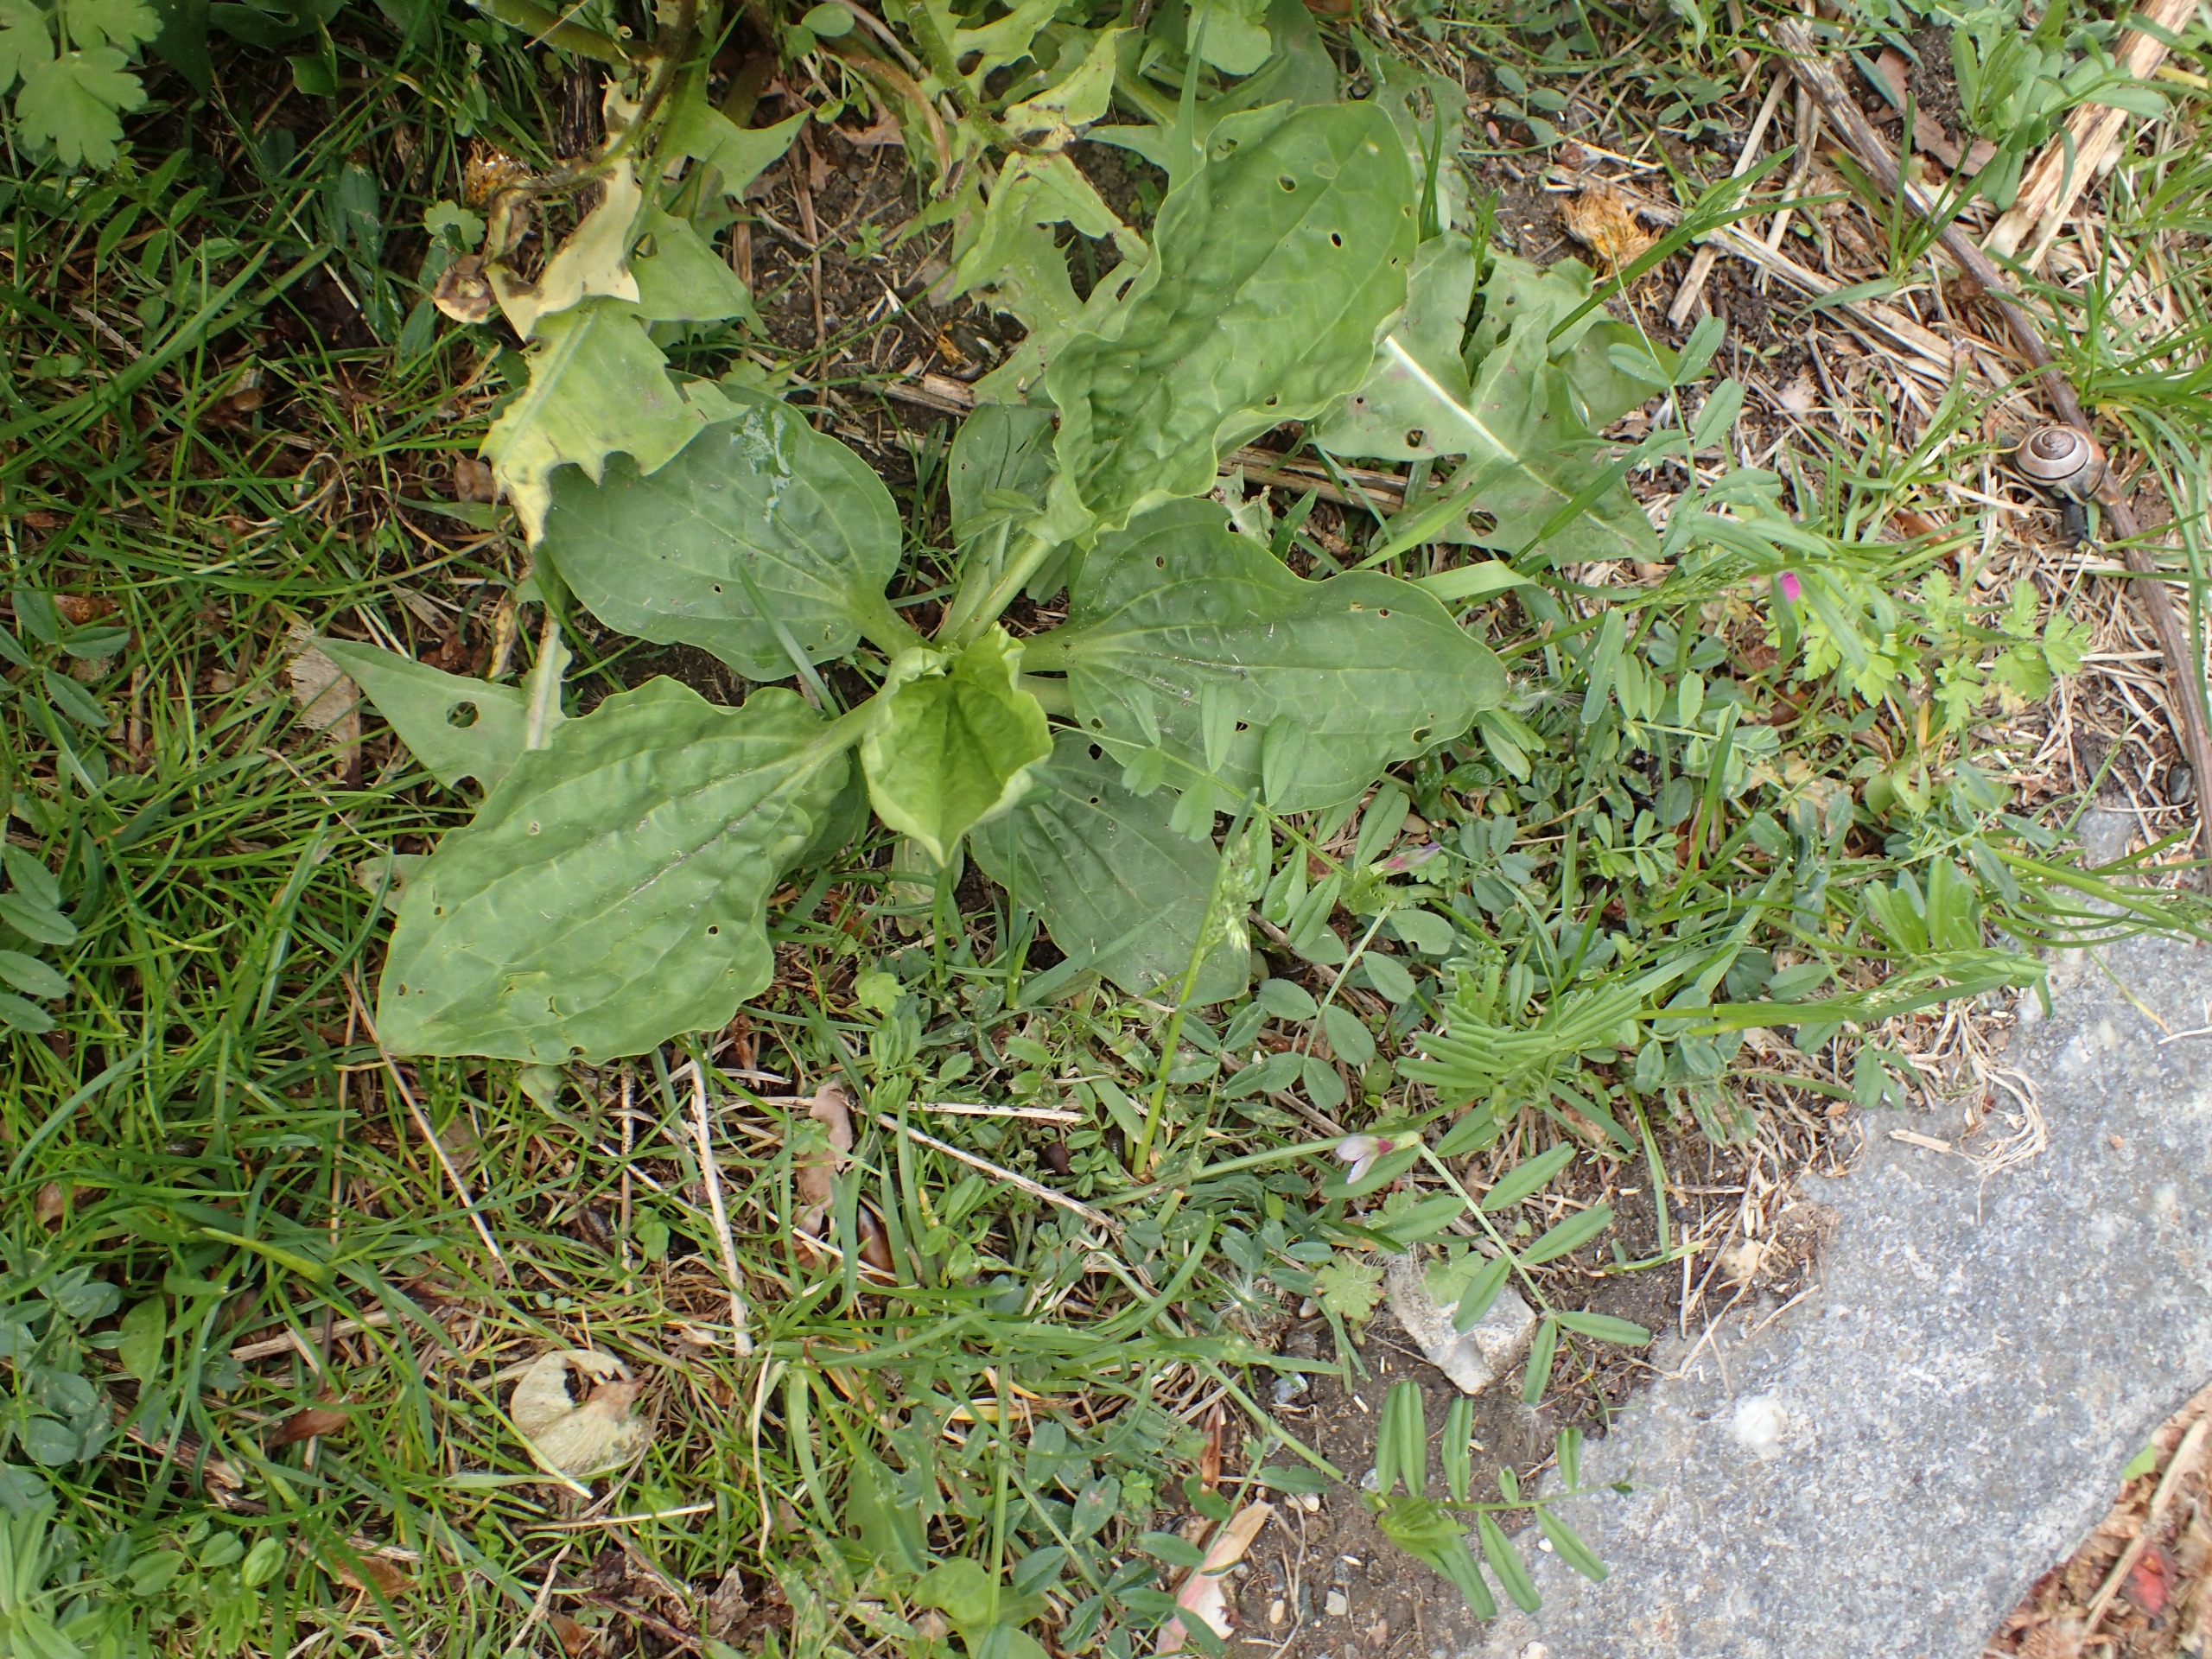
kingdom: Plantae
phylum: Tracheophyta
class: Magnoliopsida
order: Lamiales
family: Plantaginaceae
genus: Plantago
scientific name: Plantago major
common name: Glat vejbred
